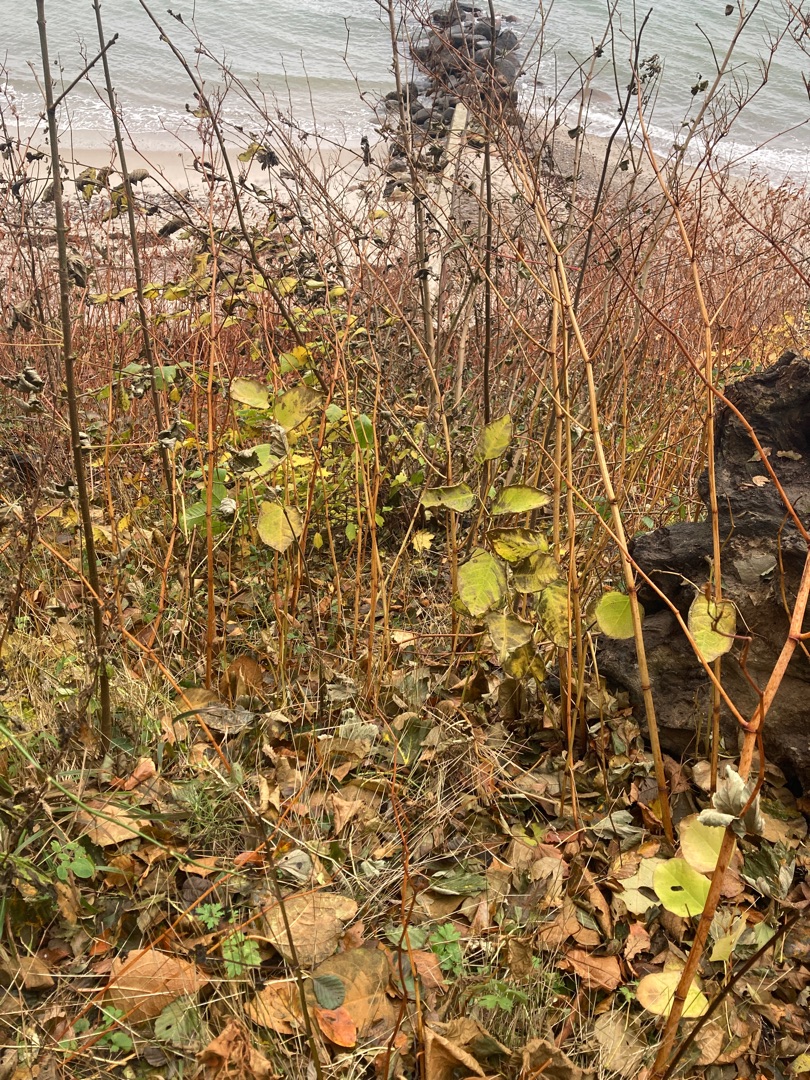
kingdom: Plantae
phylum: Tracheophyta
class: Magnoliopsida
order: Caryophyllales
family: Polygonaceae
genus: Reynoutria
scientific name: Reynoutria japonica
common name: Japan-pileurt
